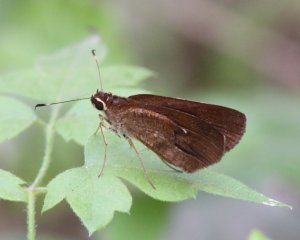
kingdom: Animalia
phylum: Arthropoda
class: Insecta
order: Lepidoptera
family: Hesperiidae
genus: Synapte
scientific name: Synapte malitiosa
